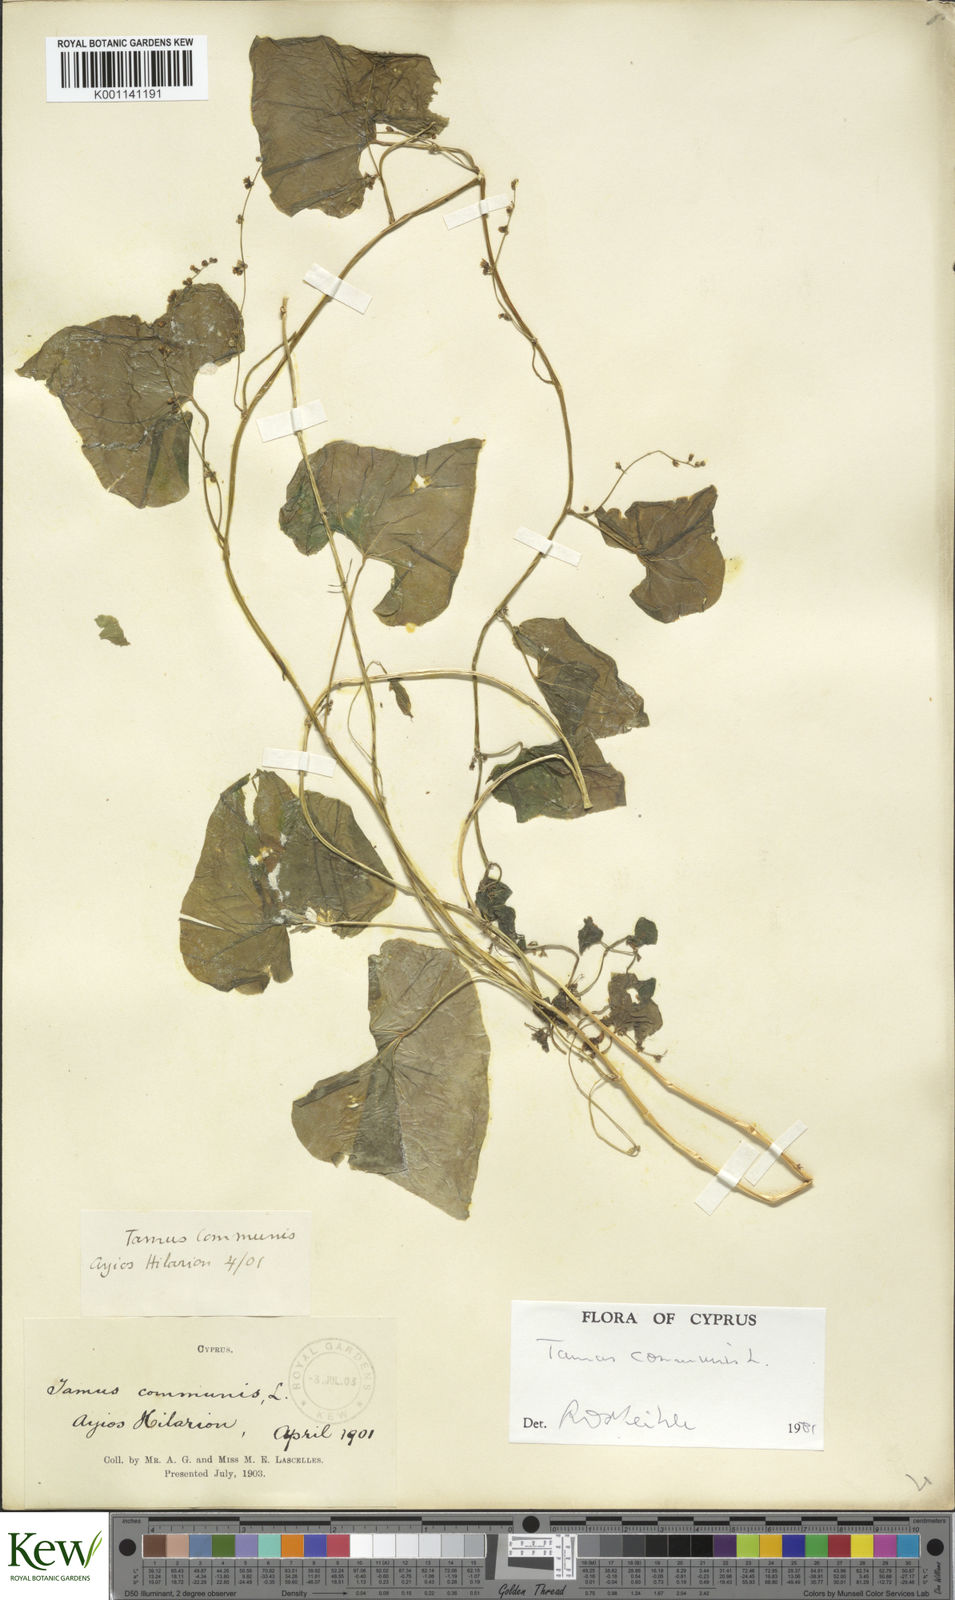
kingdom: Plantae
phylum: Tracheophyta
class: Liliopsida
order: Dioscoreales
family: Dioscoreaceae
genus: Dioscorea
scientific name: Dioscorea communis
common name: Black-bindweed
